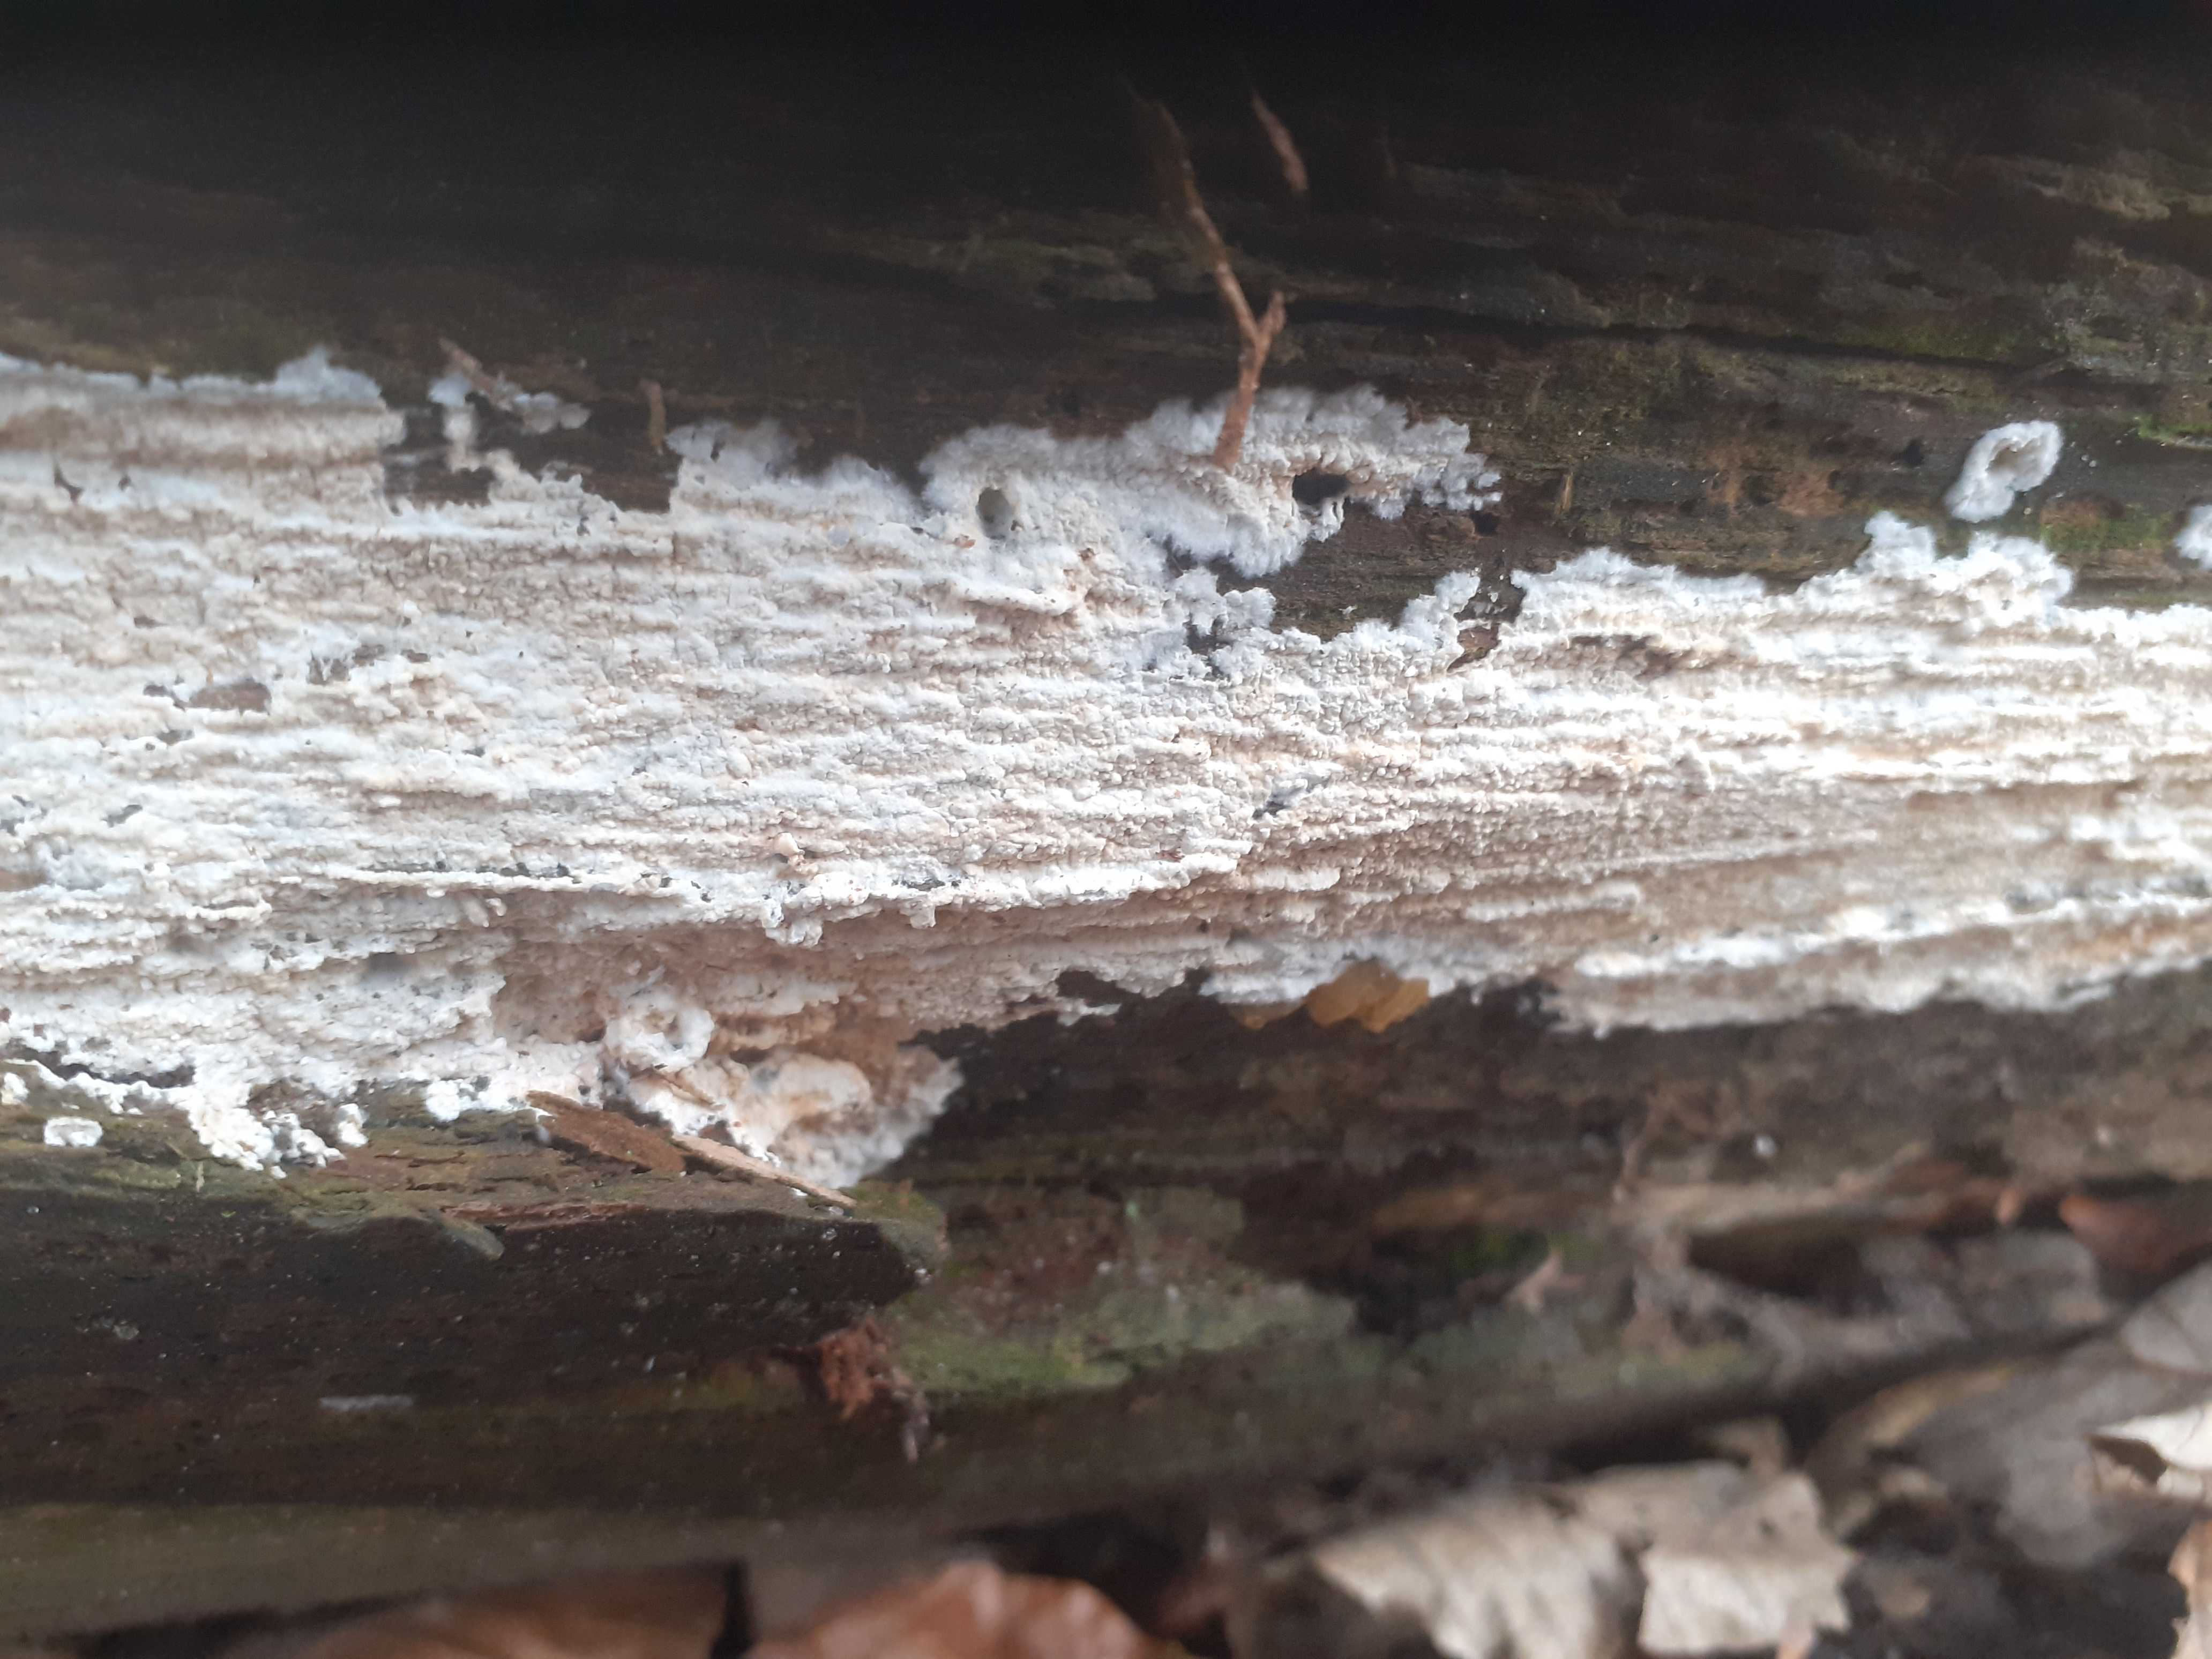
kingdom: Fungi
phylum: Basidiomycota
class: Agaricomycetes
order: Atheliales
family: Atheliaceae
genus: Leptosporomyces
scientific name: Leptosporomyces fuscostratus
